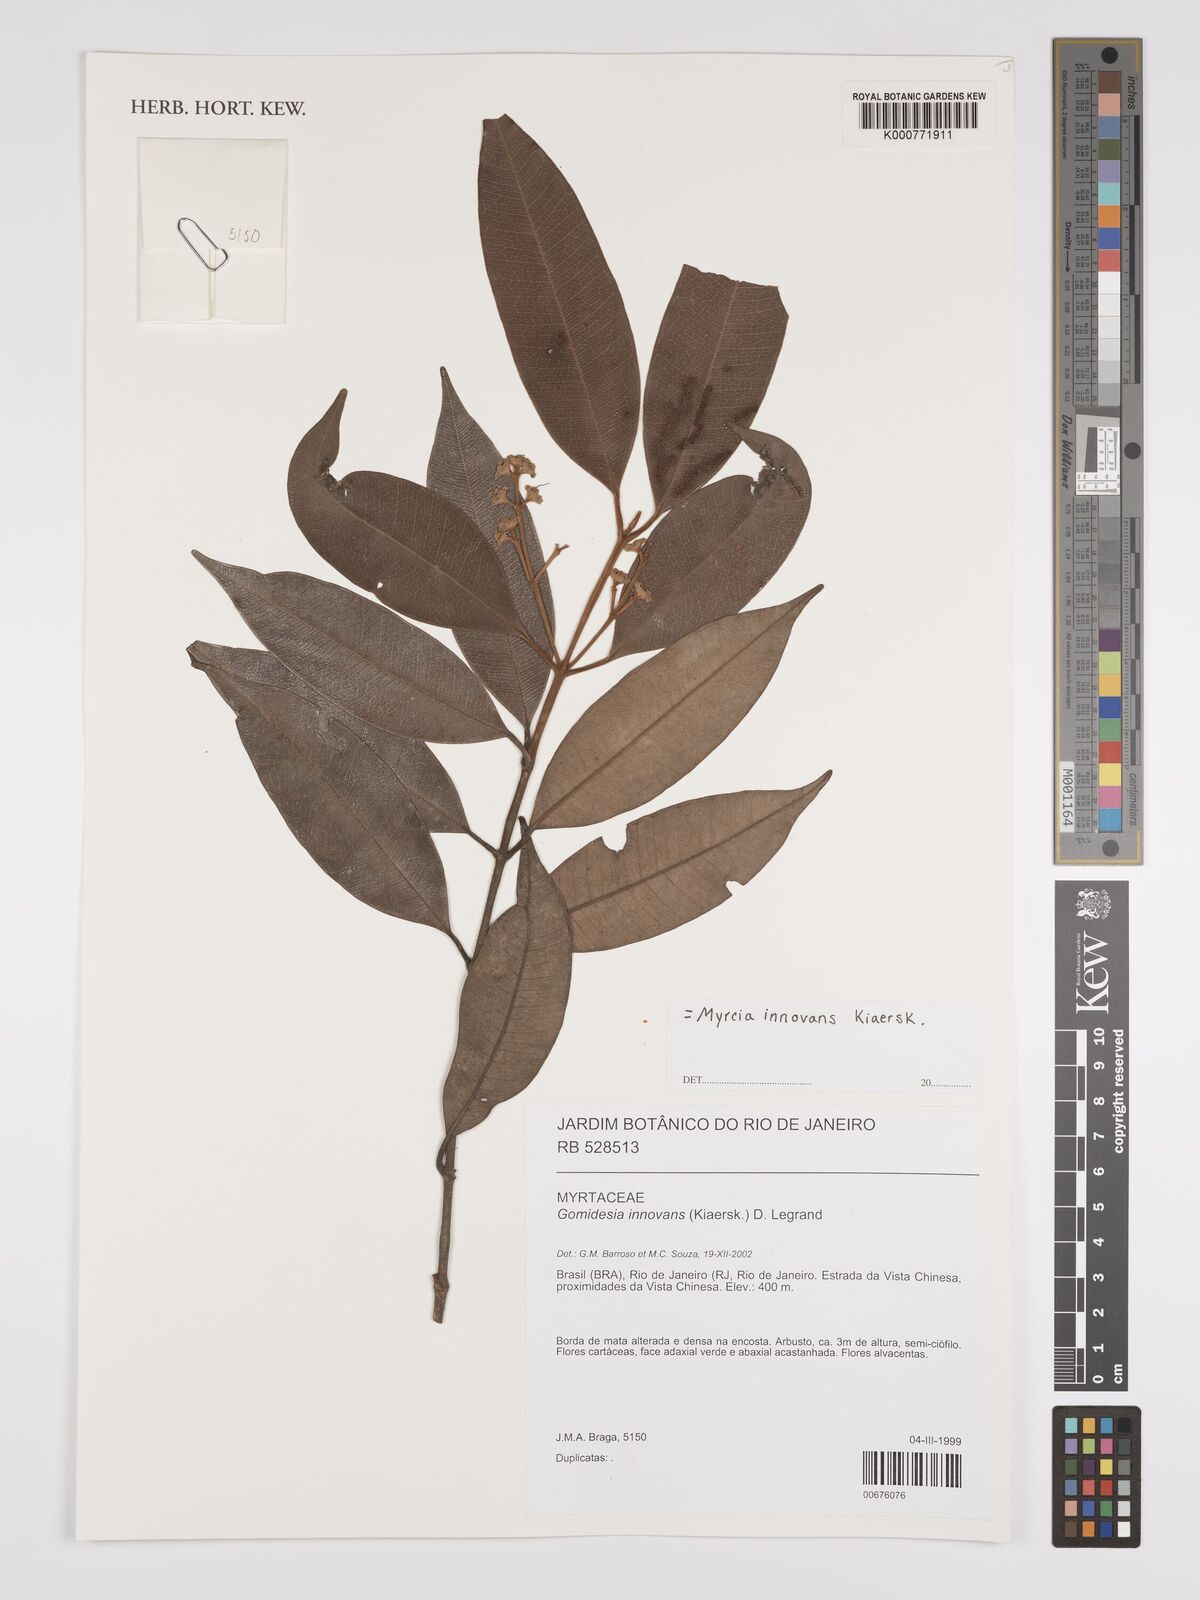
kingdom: Plantae
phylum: Tracheophyta
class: Magnoliopsida
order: Myrtales
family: Myrtaceae
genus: Myrcia
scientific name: Myrcia innovans
